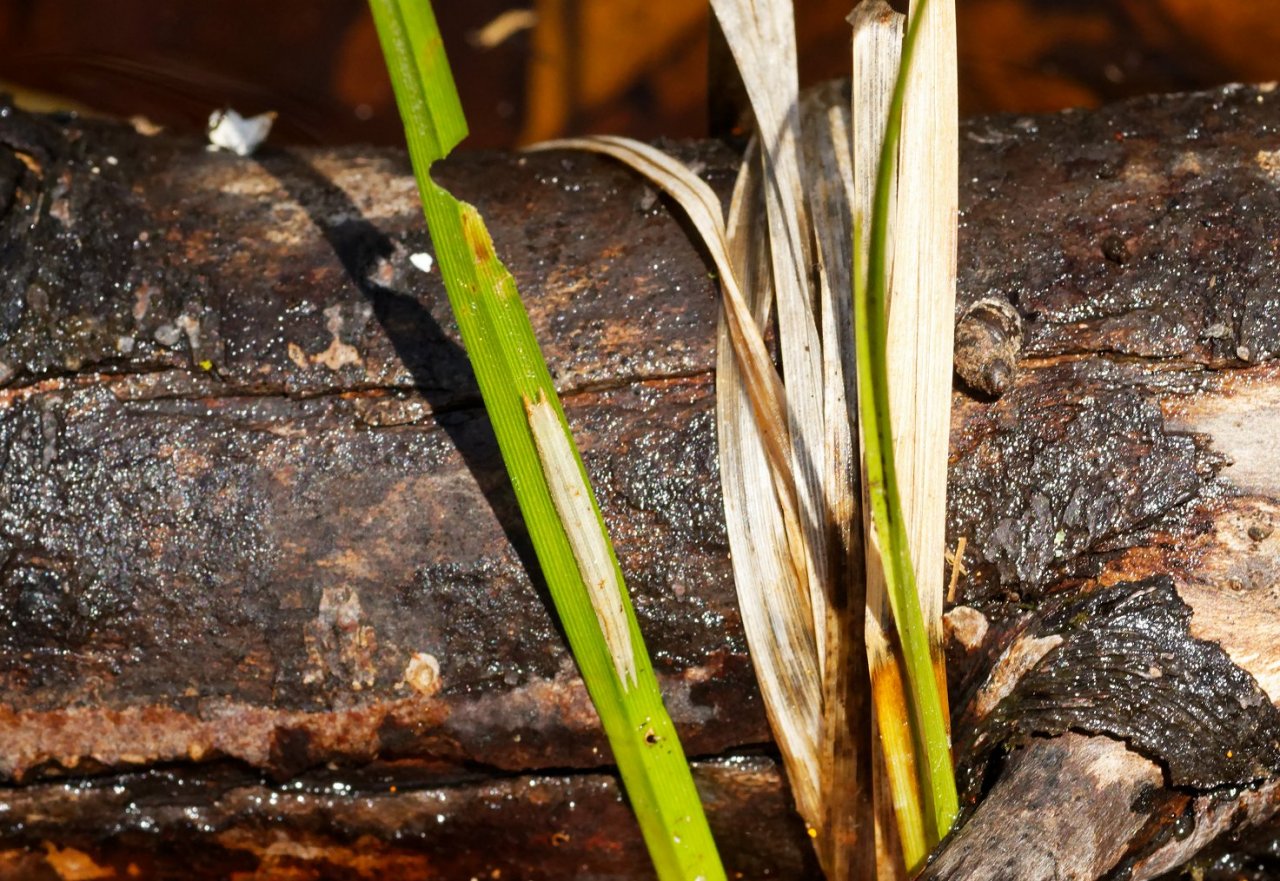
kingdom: Animalia
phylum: Arthropoda
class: Insecta
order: Lepidoptera
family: Nymphalidae
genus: Lethe
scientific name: Lethe eurydice
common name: Appalachian Eyed Brown
